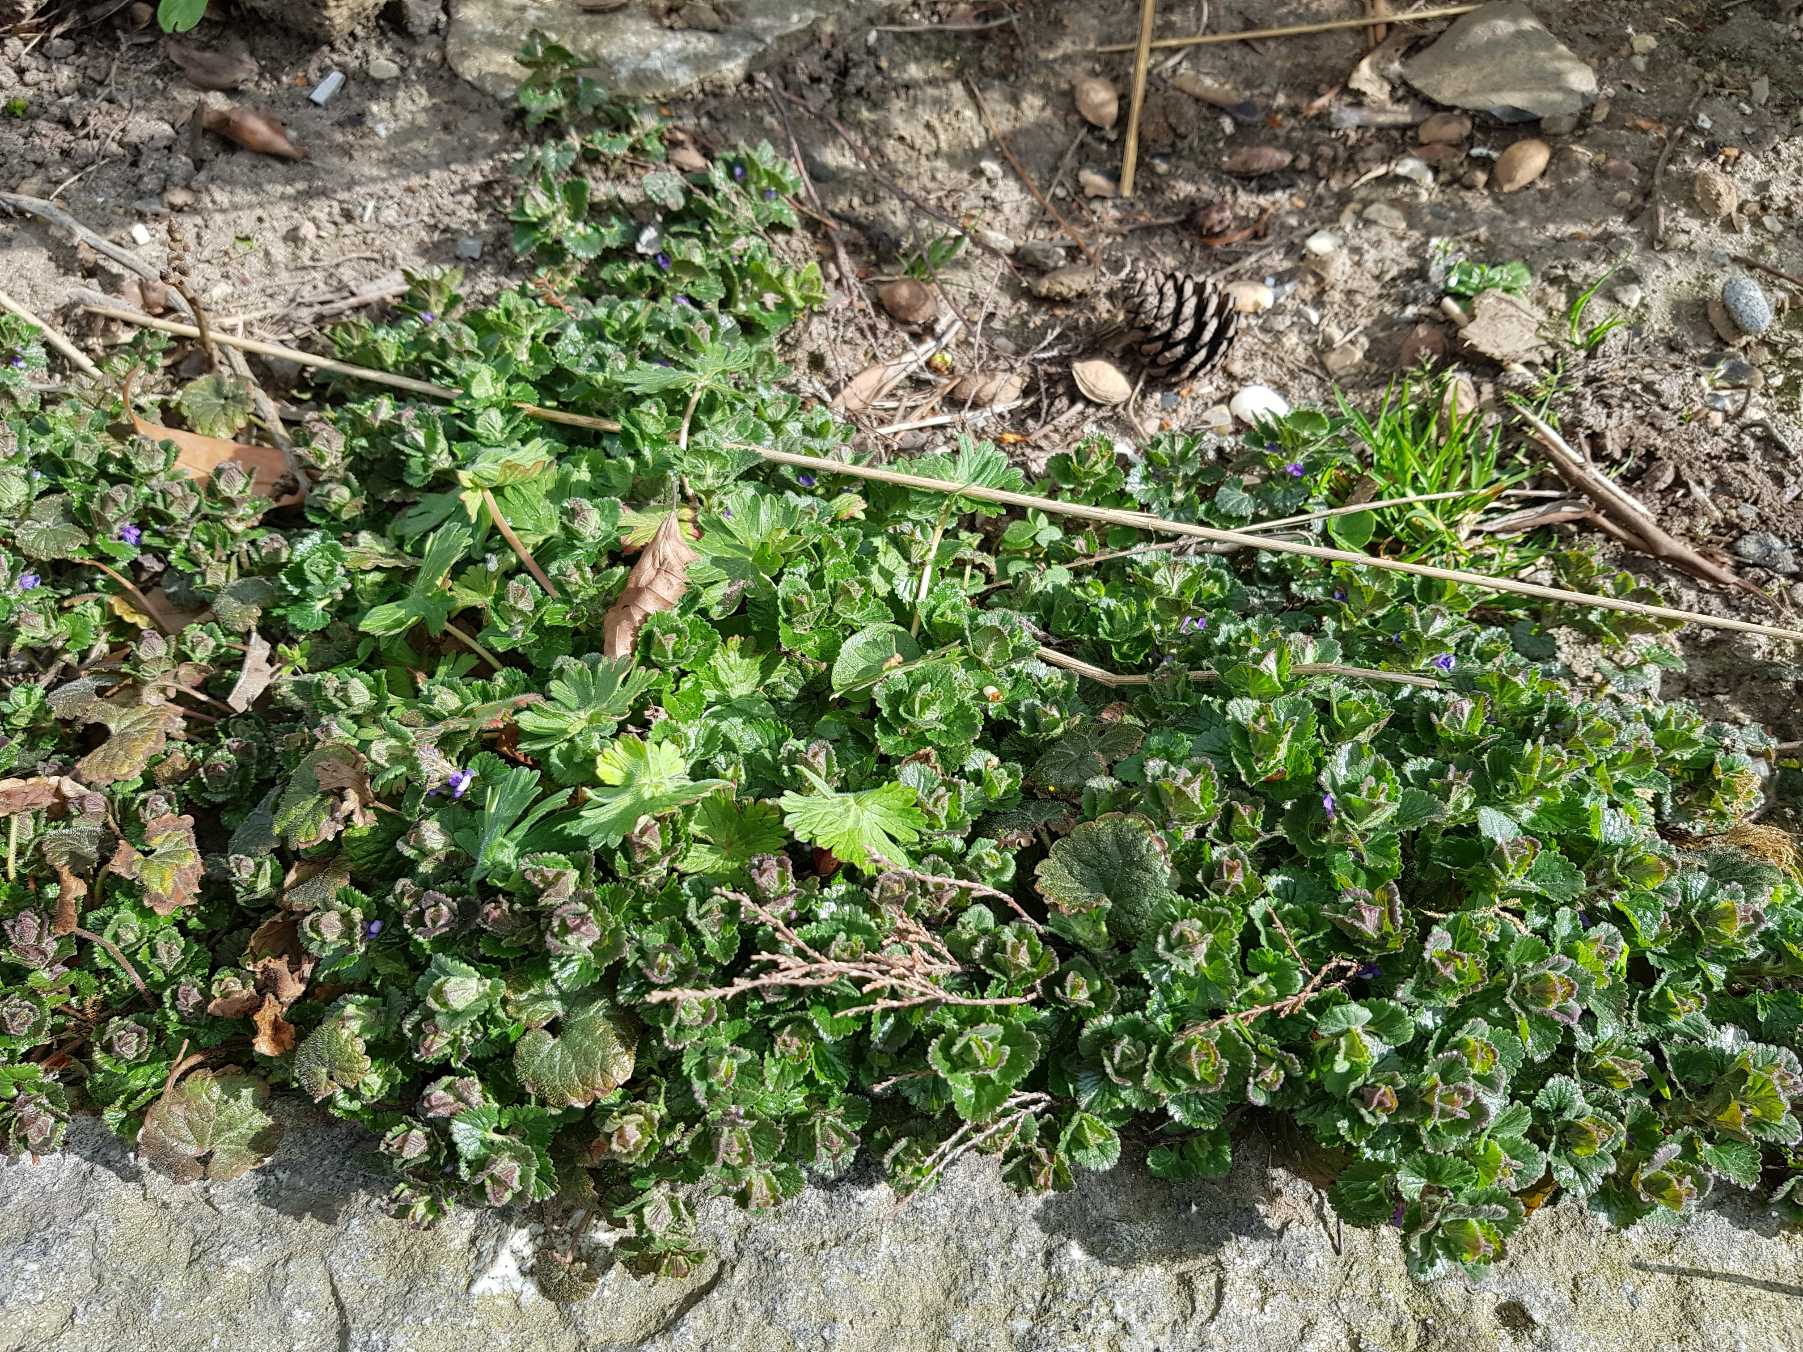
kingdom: Plantae
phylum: Tracheophyta
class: Magnoliopsida
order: Lamiales
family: Lamiaceae
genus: Glechoma
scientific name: Glechoma hederacea
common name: Korsknap
